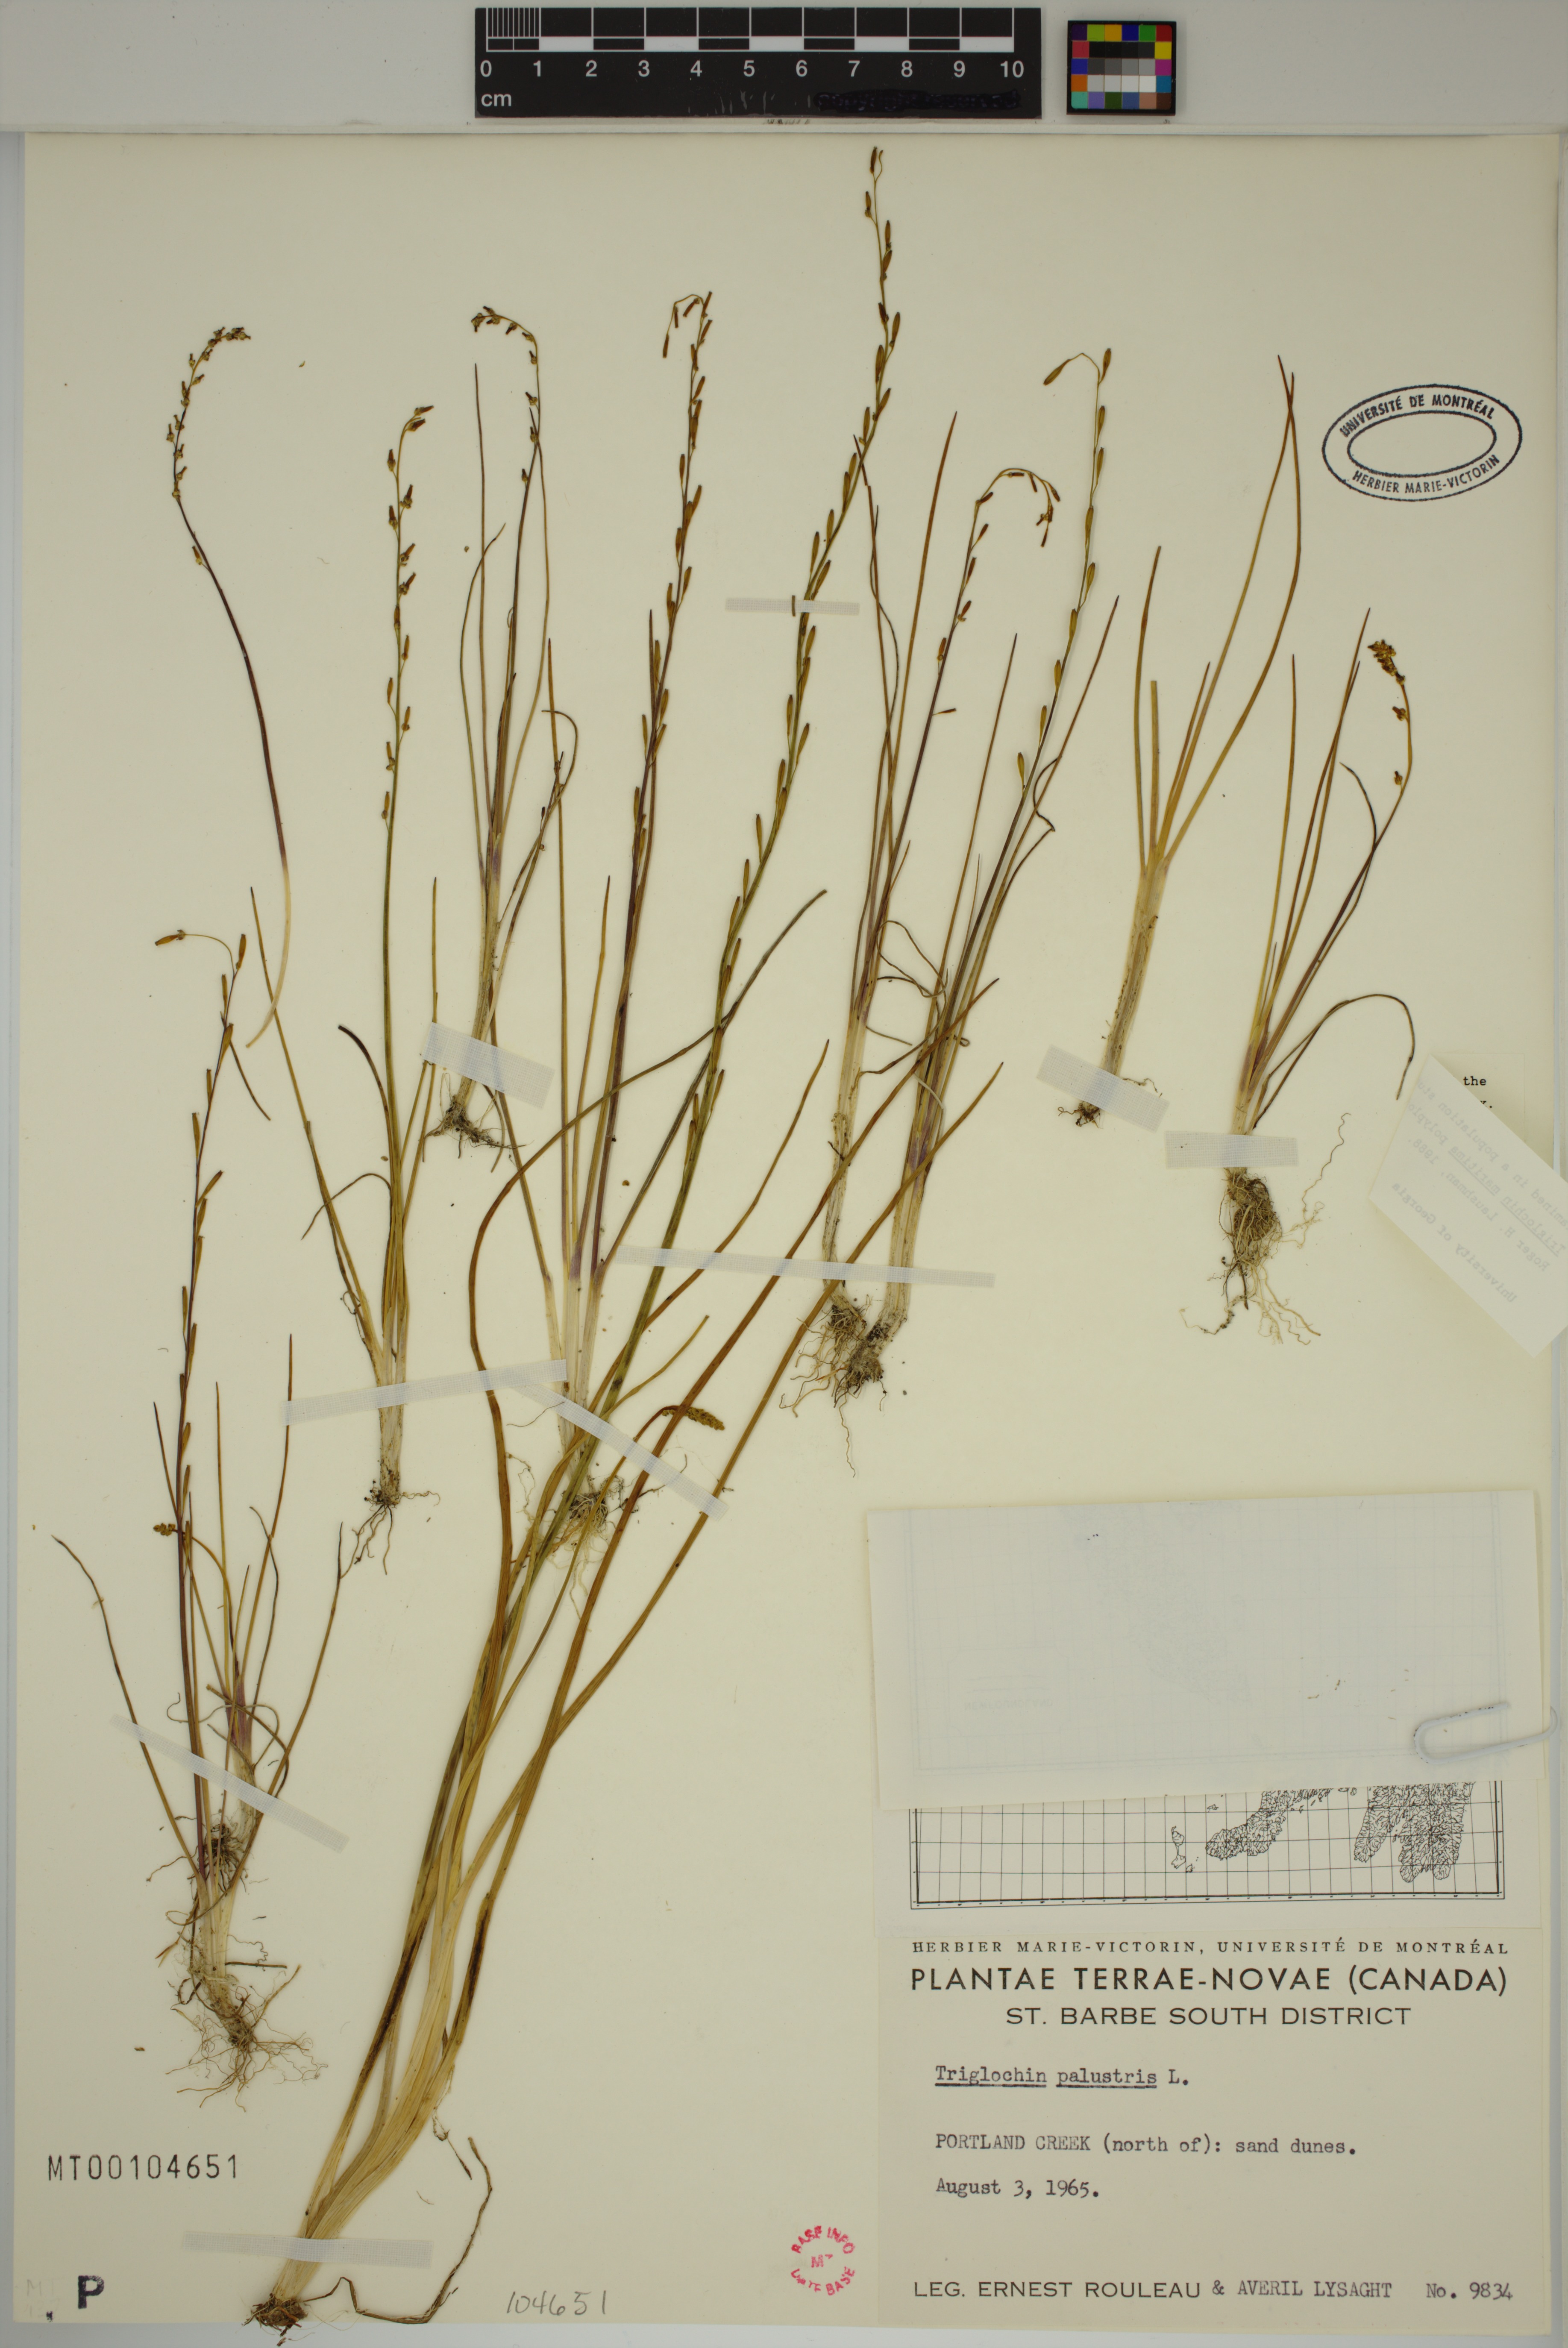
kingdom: Plantae
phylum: Tracheophyta
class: Liliopsida
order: Alismatales
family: Juncaginaceae
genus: Triglochin
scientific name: Triglochin palustris
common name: Marsh arrowgrass
